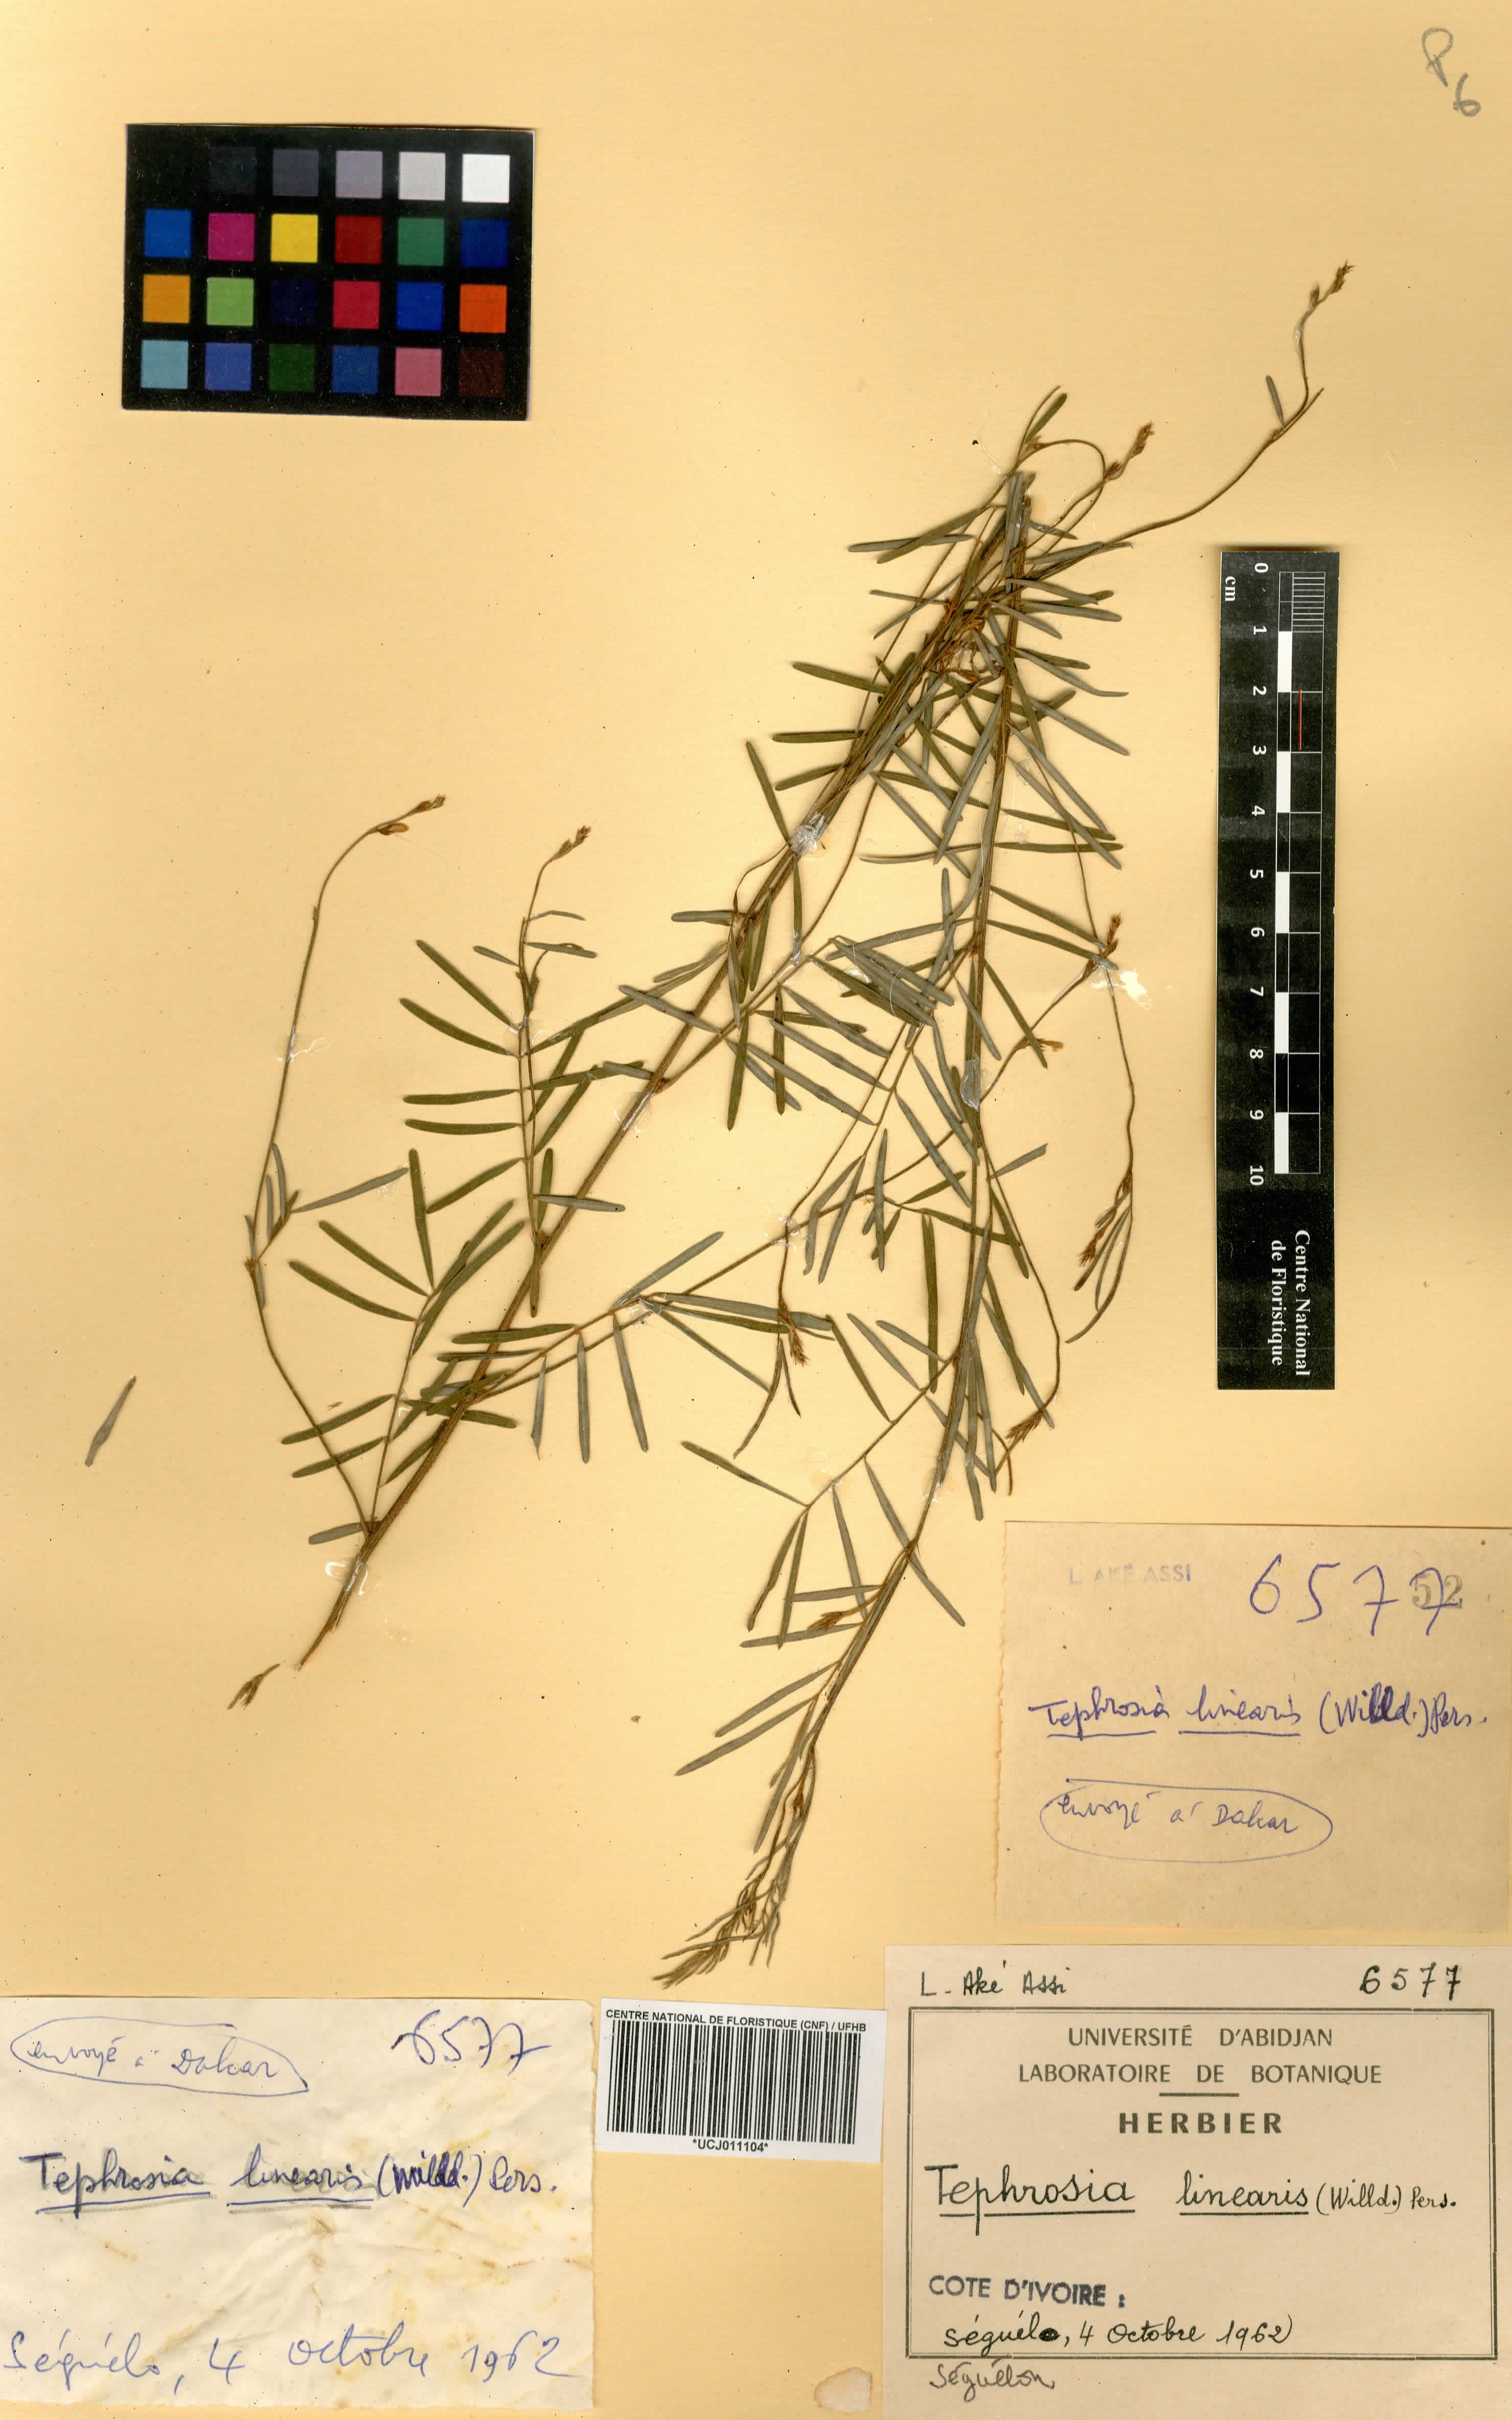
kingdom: Plantae
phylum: Tracheophyta
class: Magnoliopsida
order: Fabales
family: Fabaceae
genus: Tephrosia
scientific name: Tephrosia linearis
